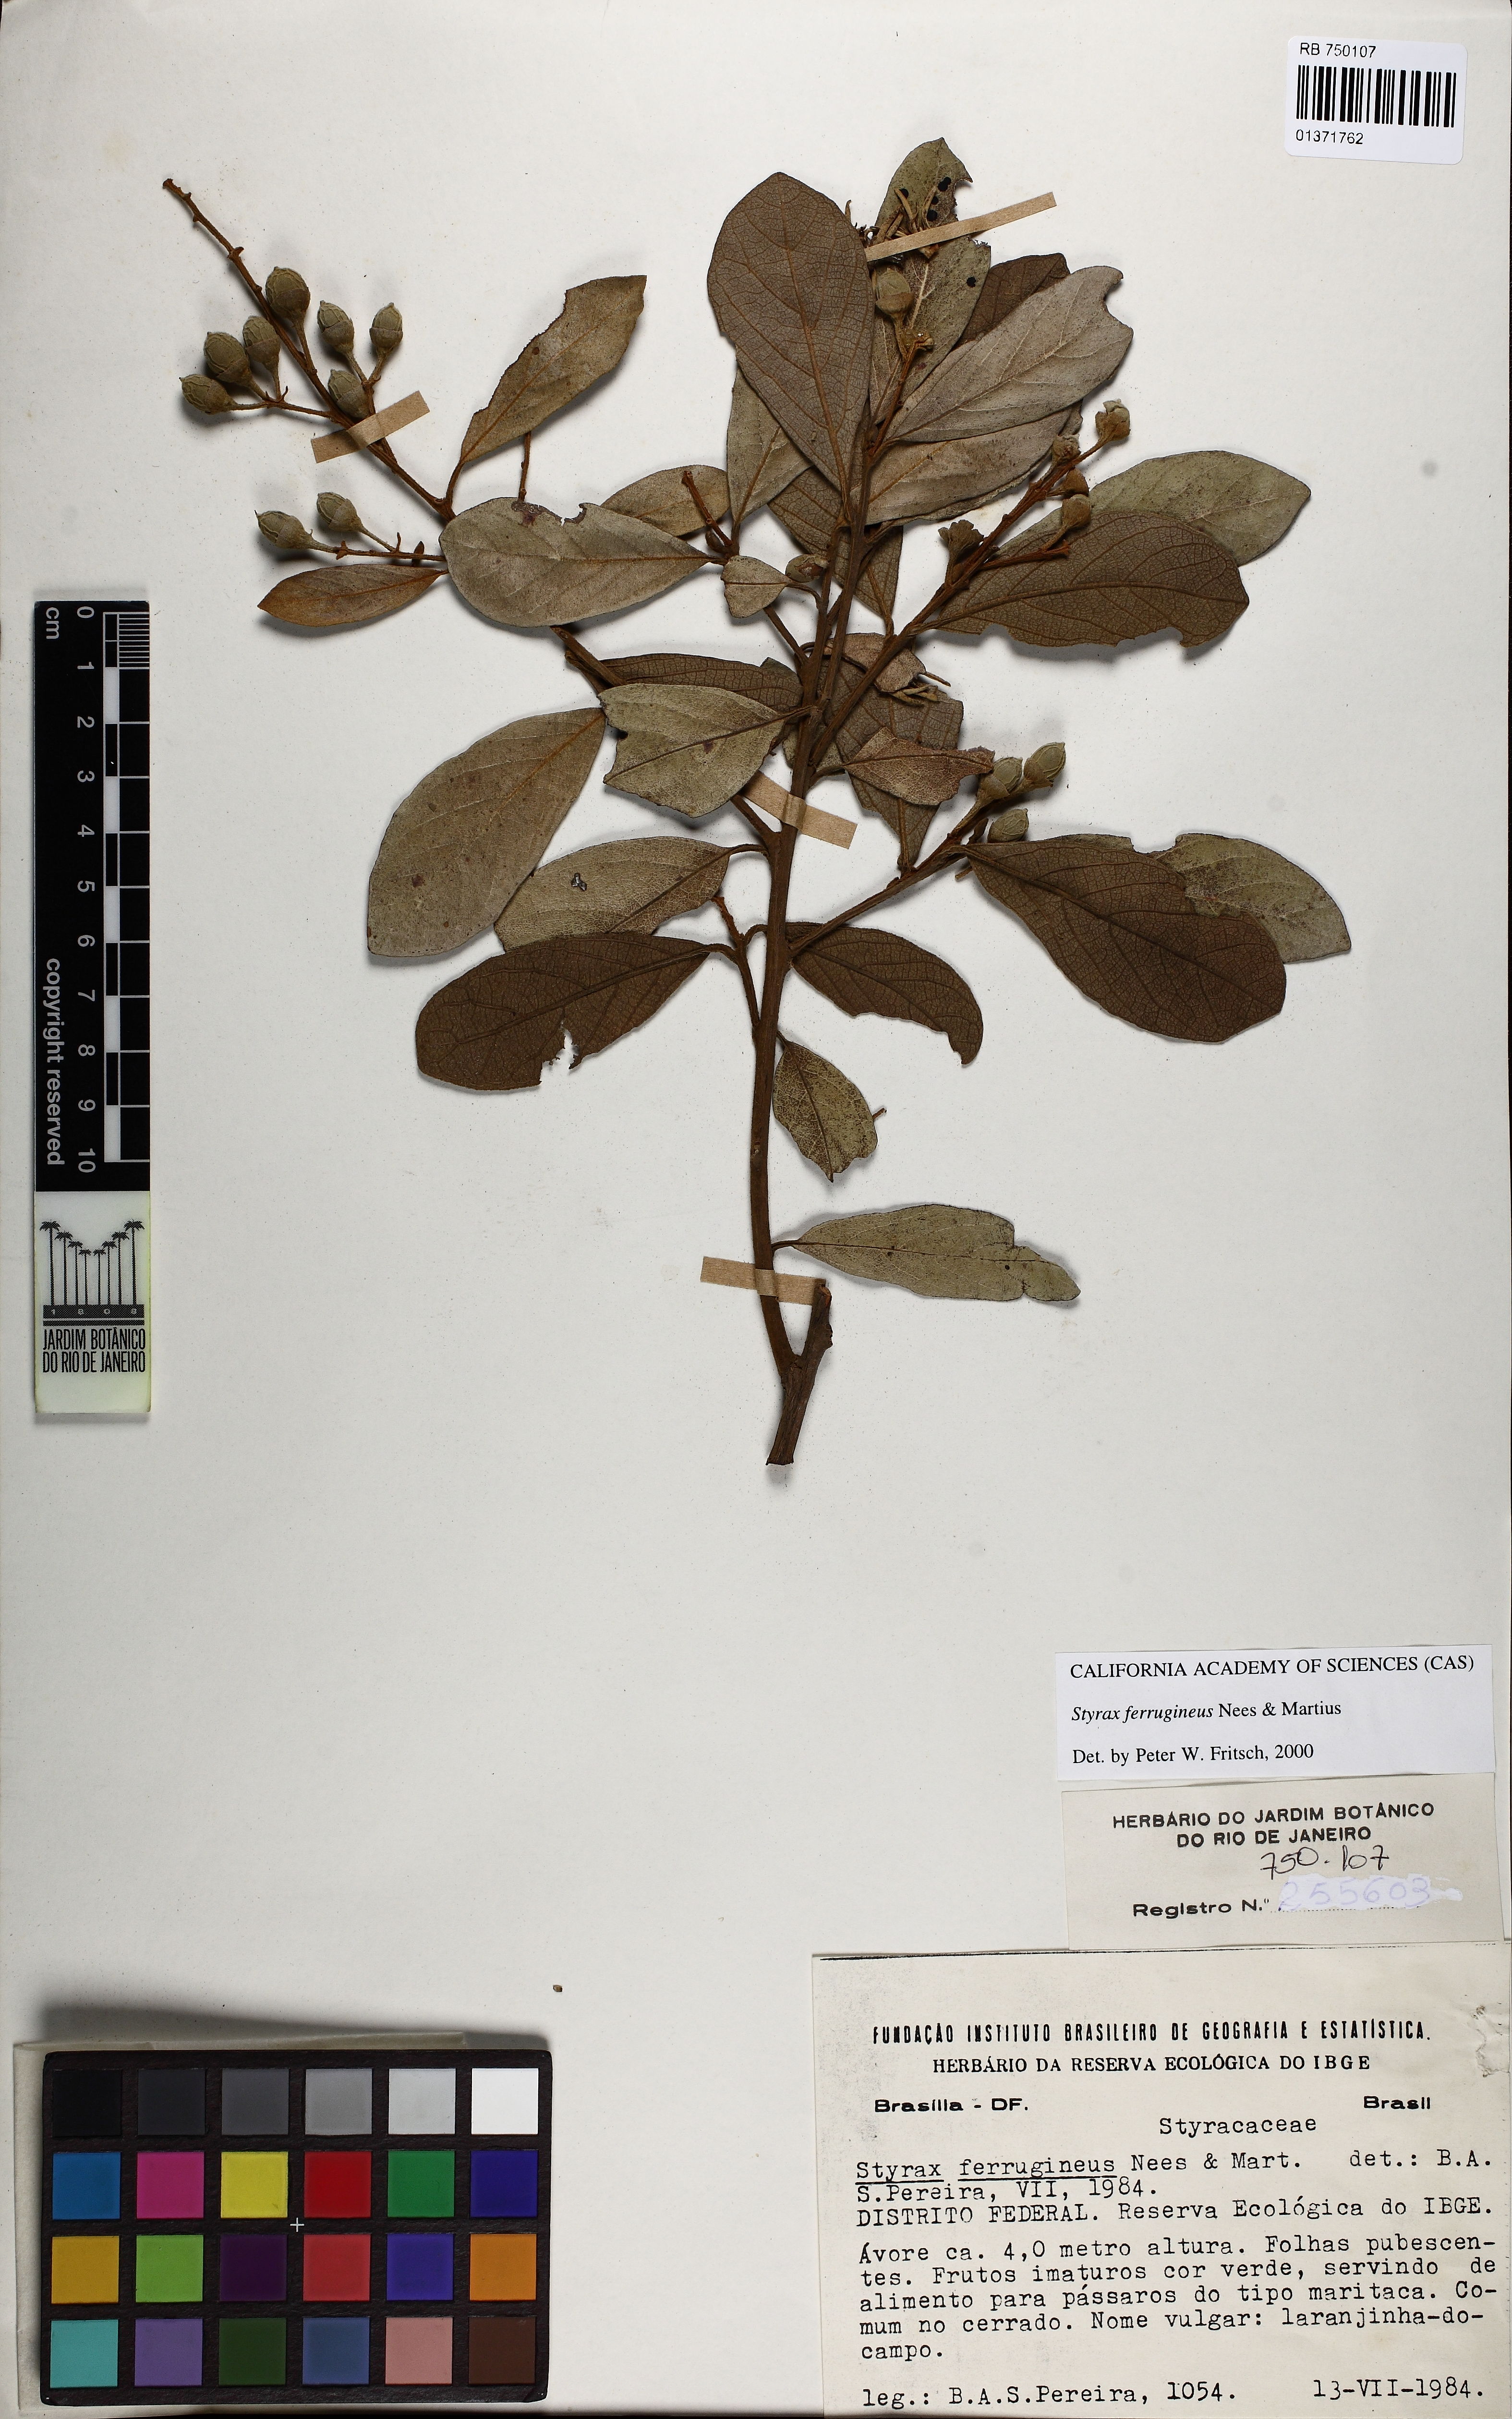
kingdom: Plantae
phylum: Tracheophyta
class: Liliopsida
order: Poales
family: Bromeliaceae
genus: Neoregelia
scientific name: Neoregelia viridovinosa
